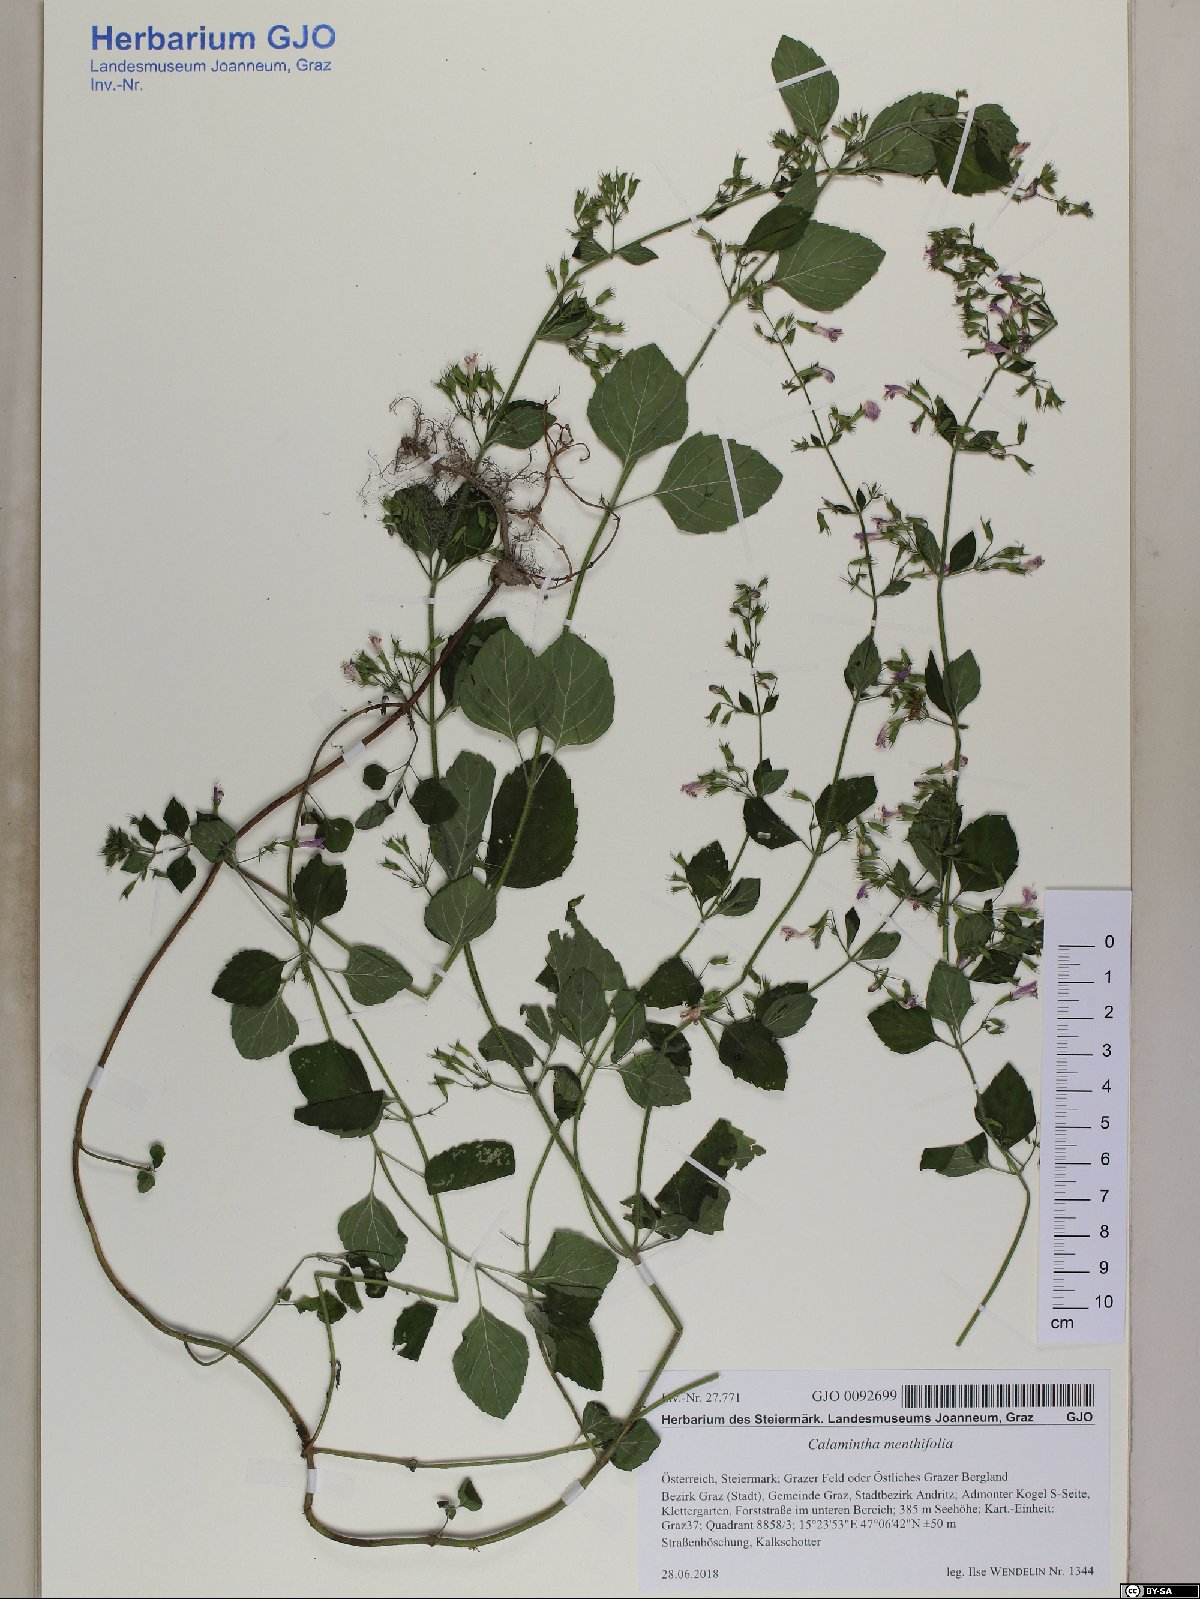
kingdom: Plantae
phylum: Tracheophyta
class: Magnoliopsida
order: Lamiales
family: Lamiaceae
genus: Clinopodium
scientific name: Clinopodium menthifolium
